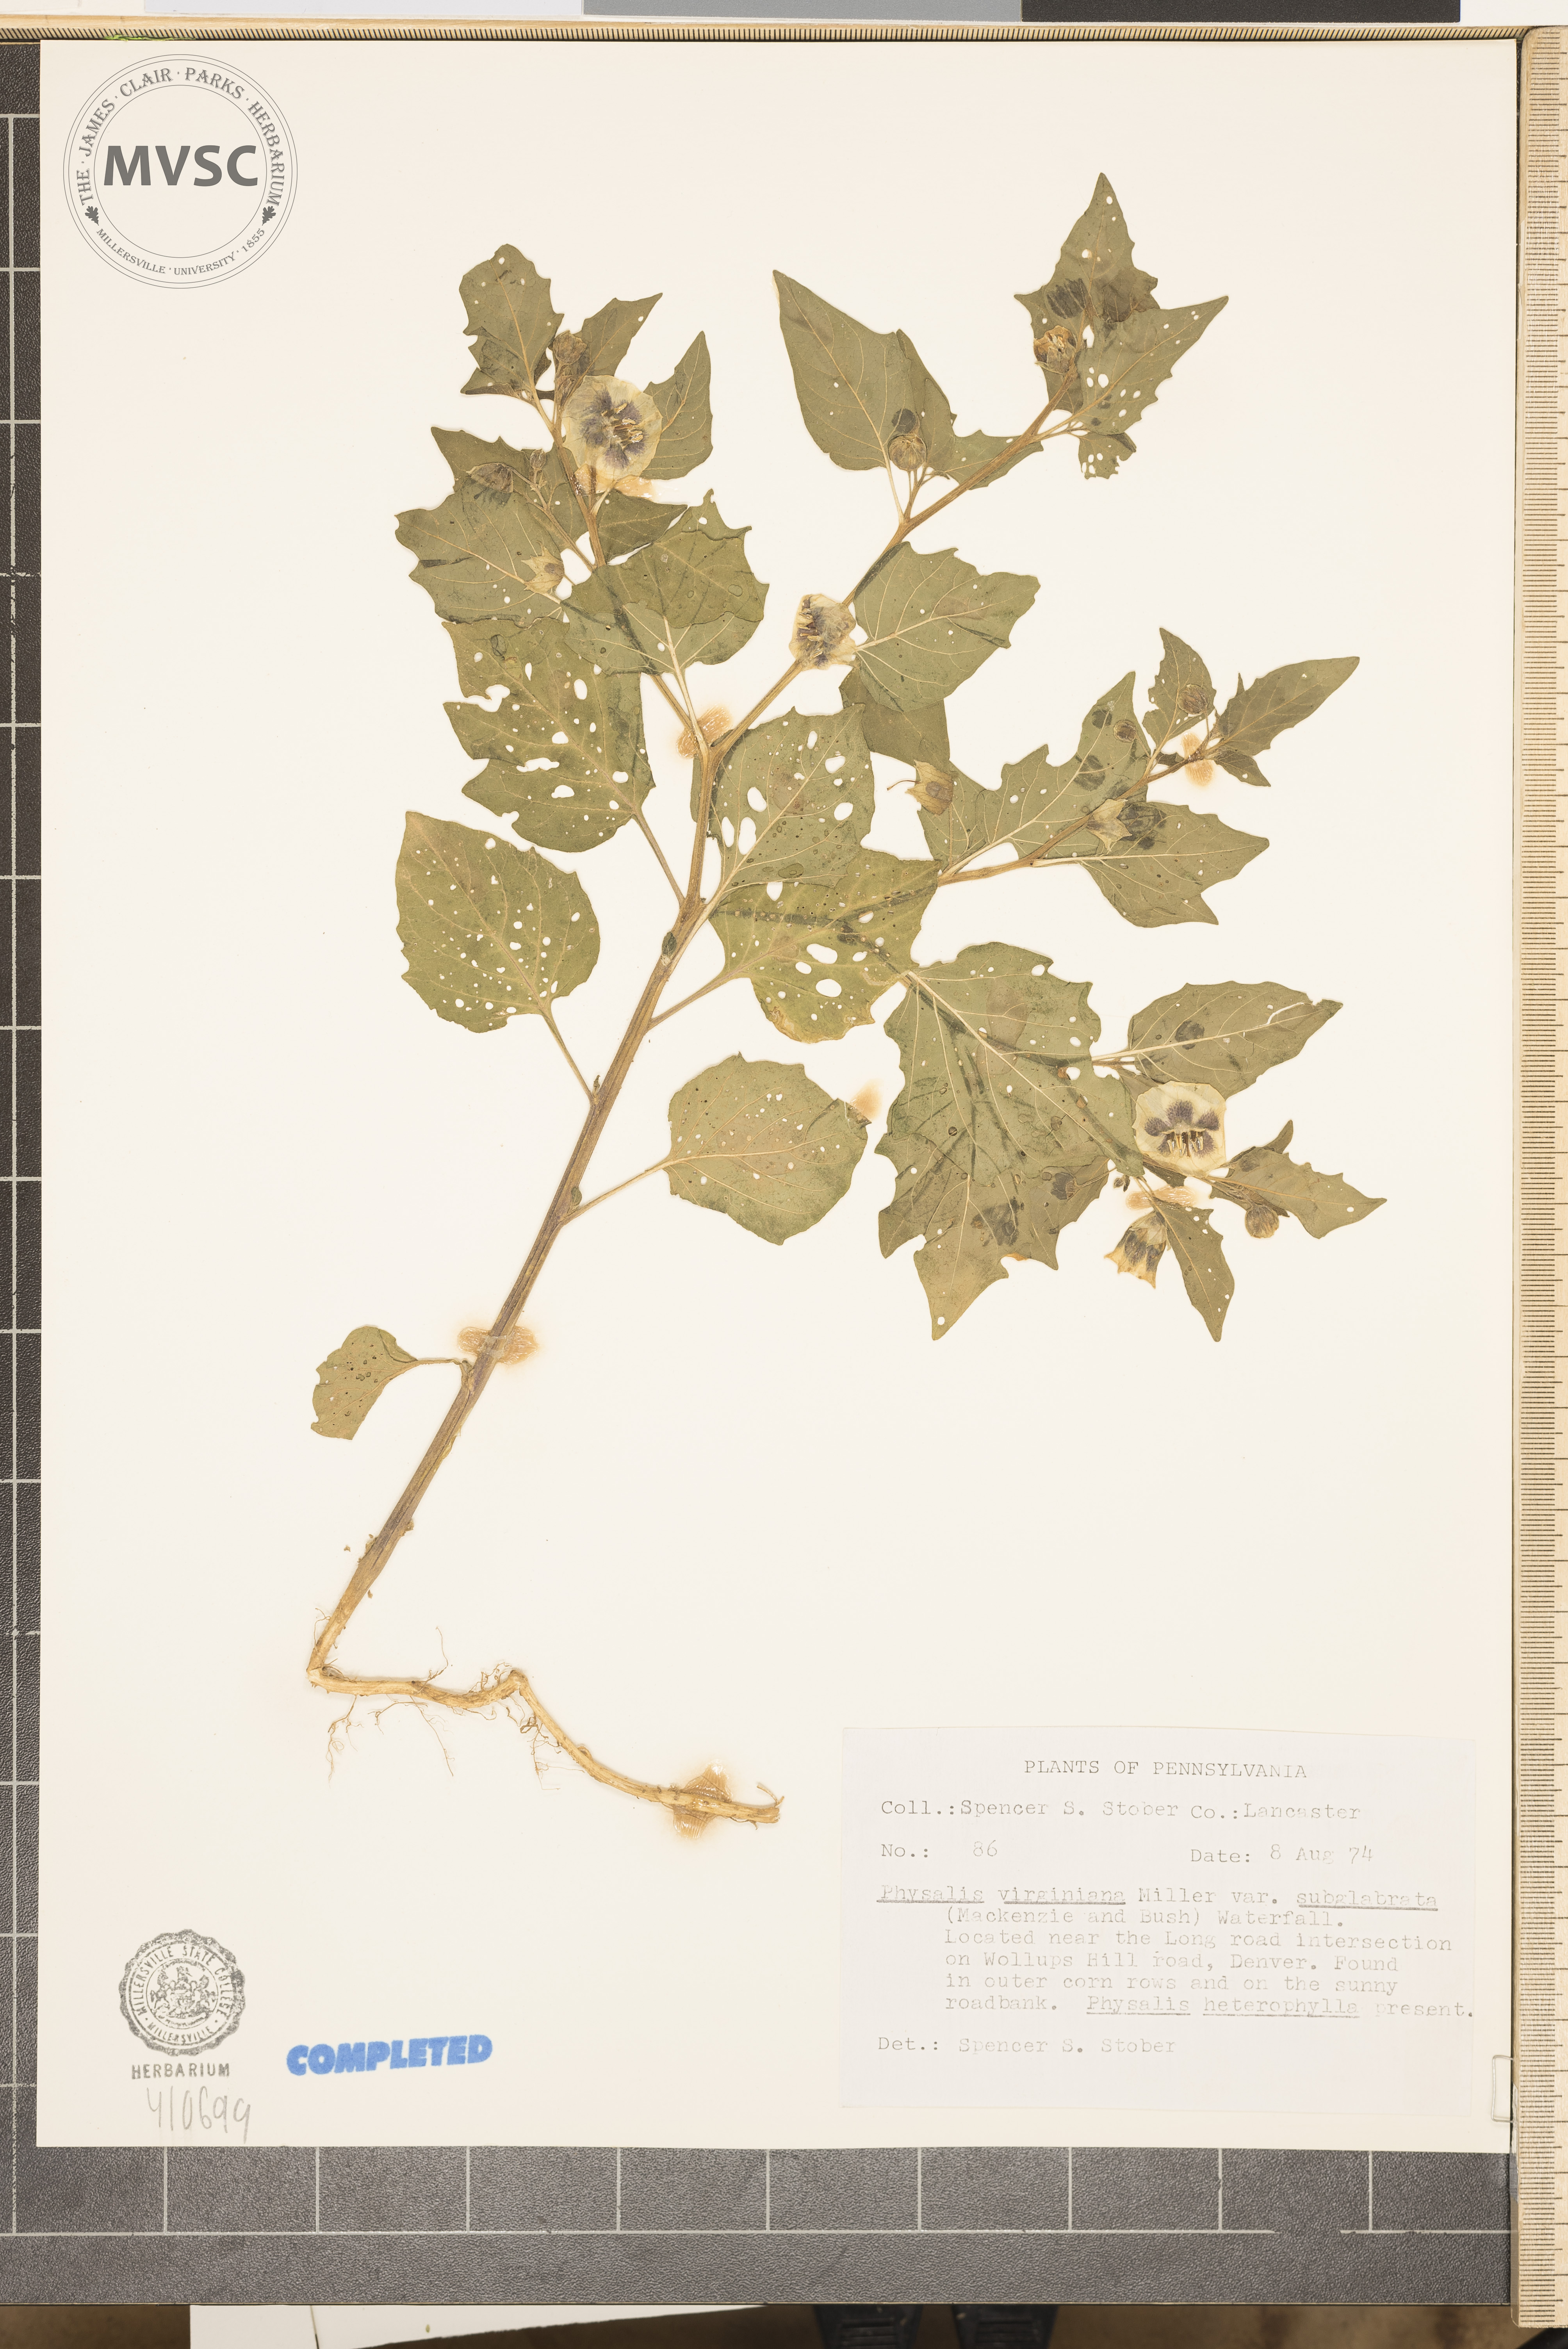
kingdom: Plantae
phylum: Tracheophyta
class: Magnoliopsida
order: Solanales
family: Solanaceae
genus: Physalis
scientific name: Physalis virginiana
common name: Virginia ground-cherry
